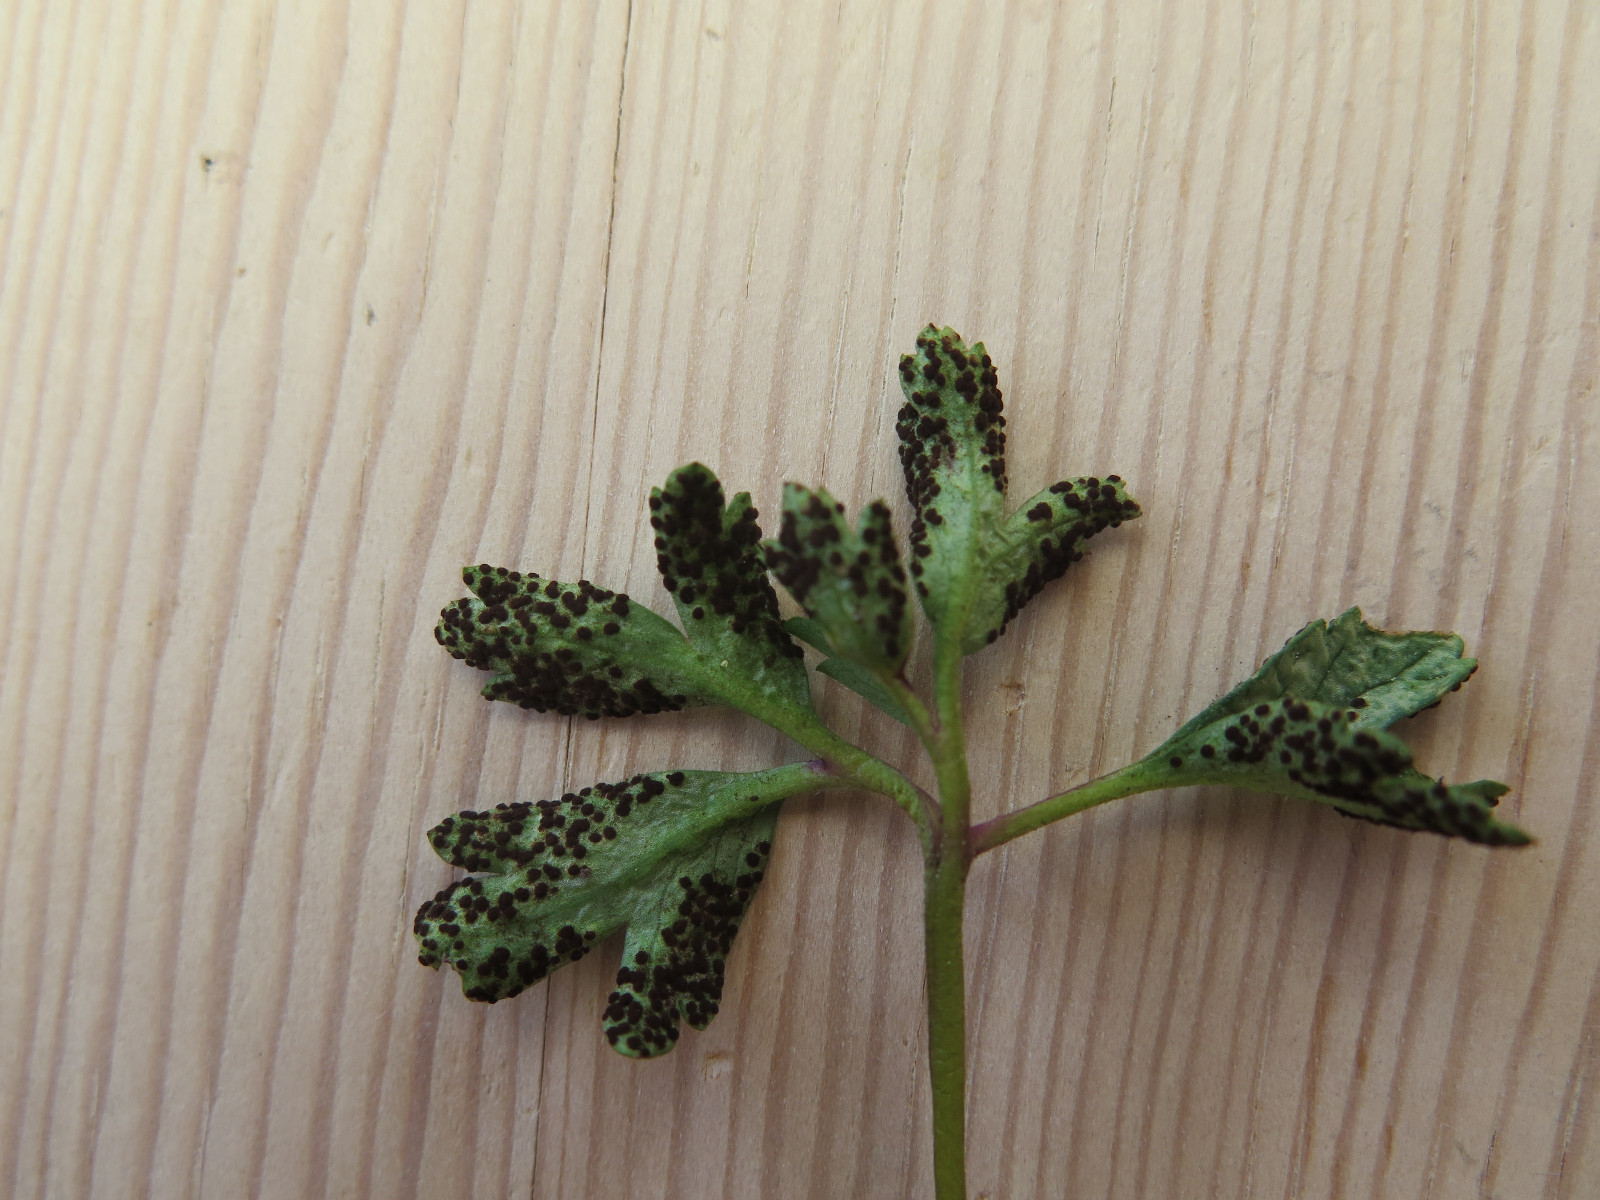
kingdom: Fungi
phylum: Basidiomycota
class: Pucciniomycetes
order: Pucciniales
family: Tranzscheliaceae
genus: Tranzschelia
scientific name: Tranzschelia anemones
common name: anemone-knæksporerust
